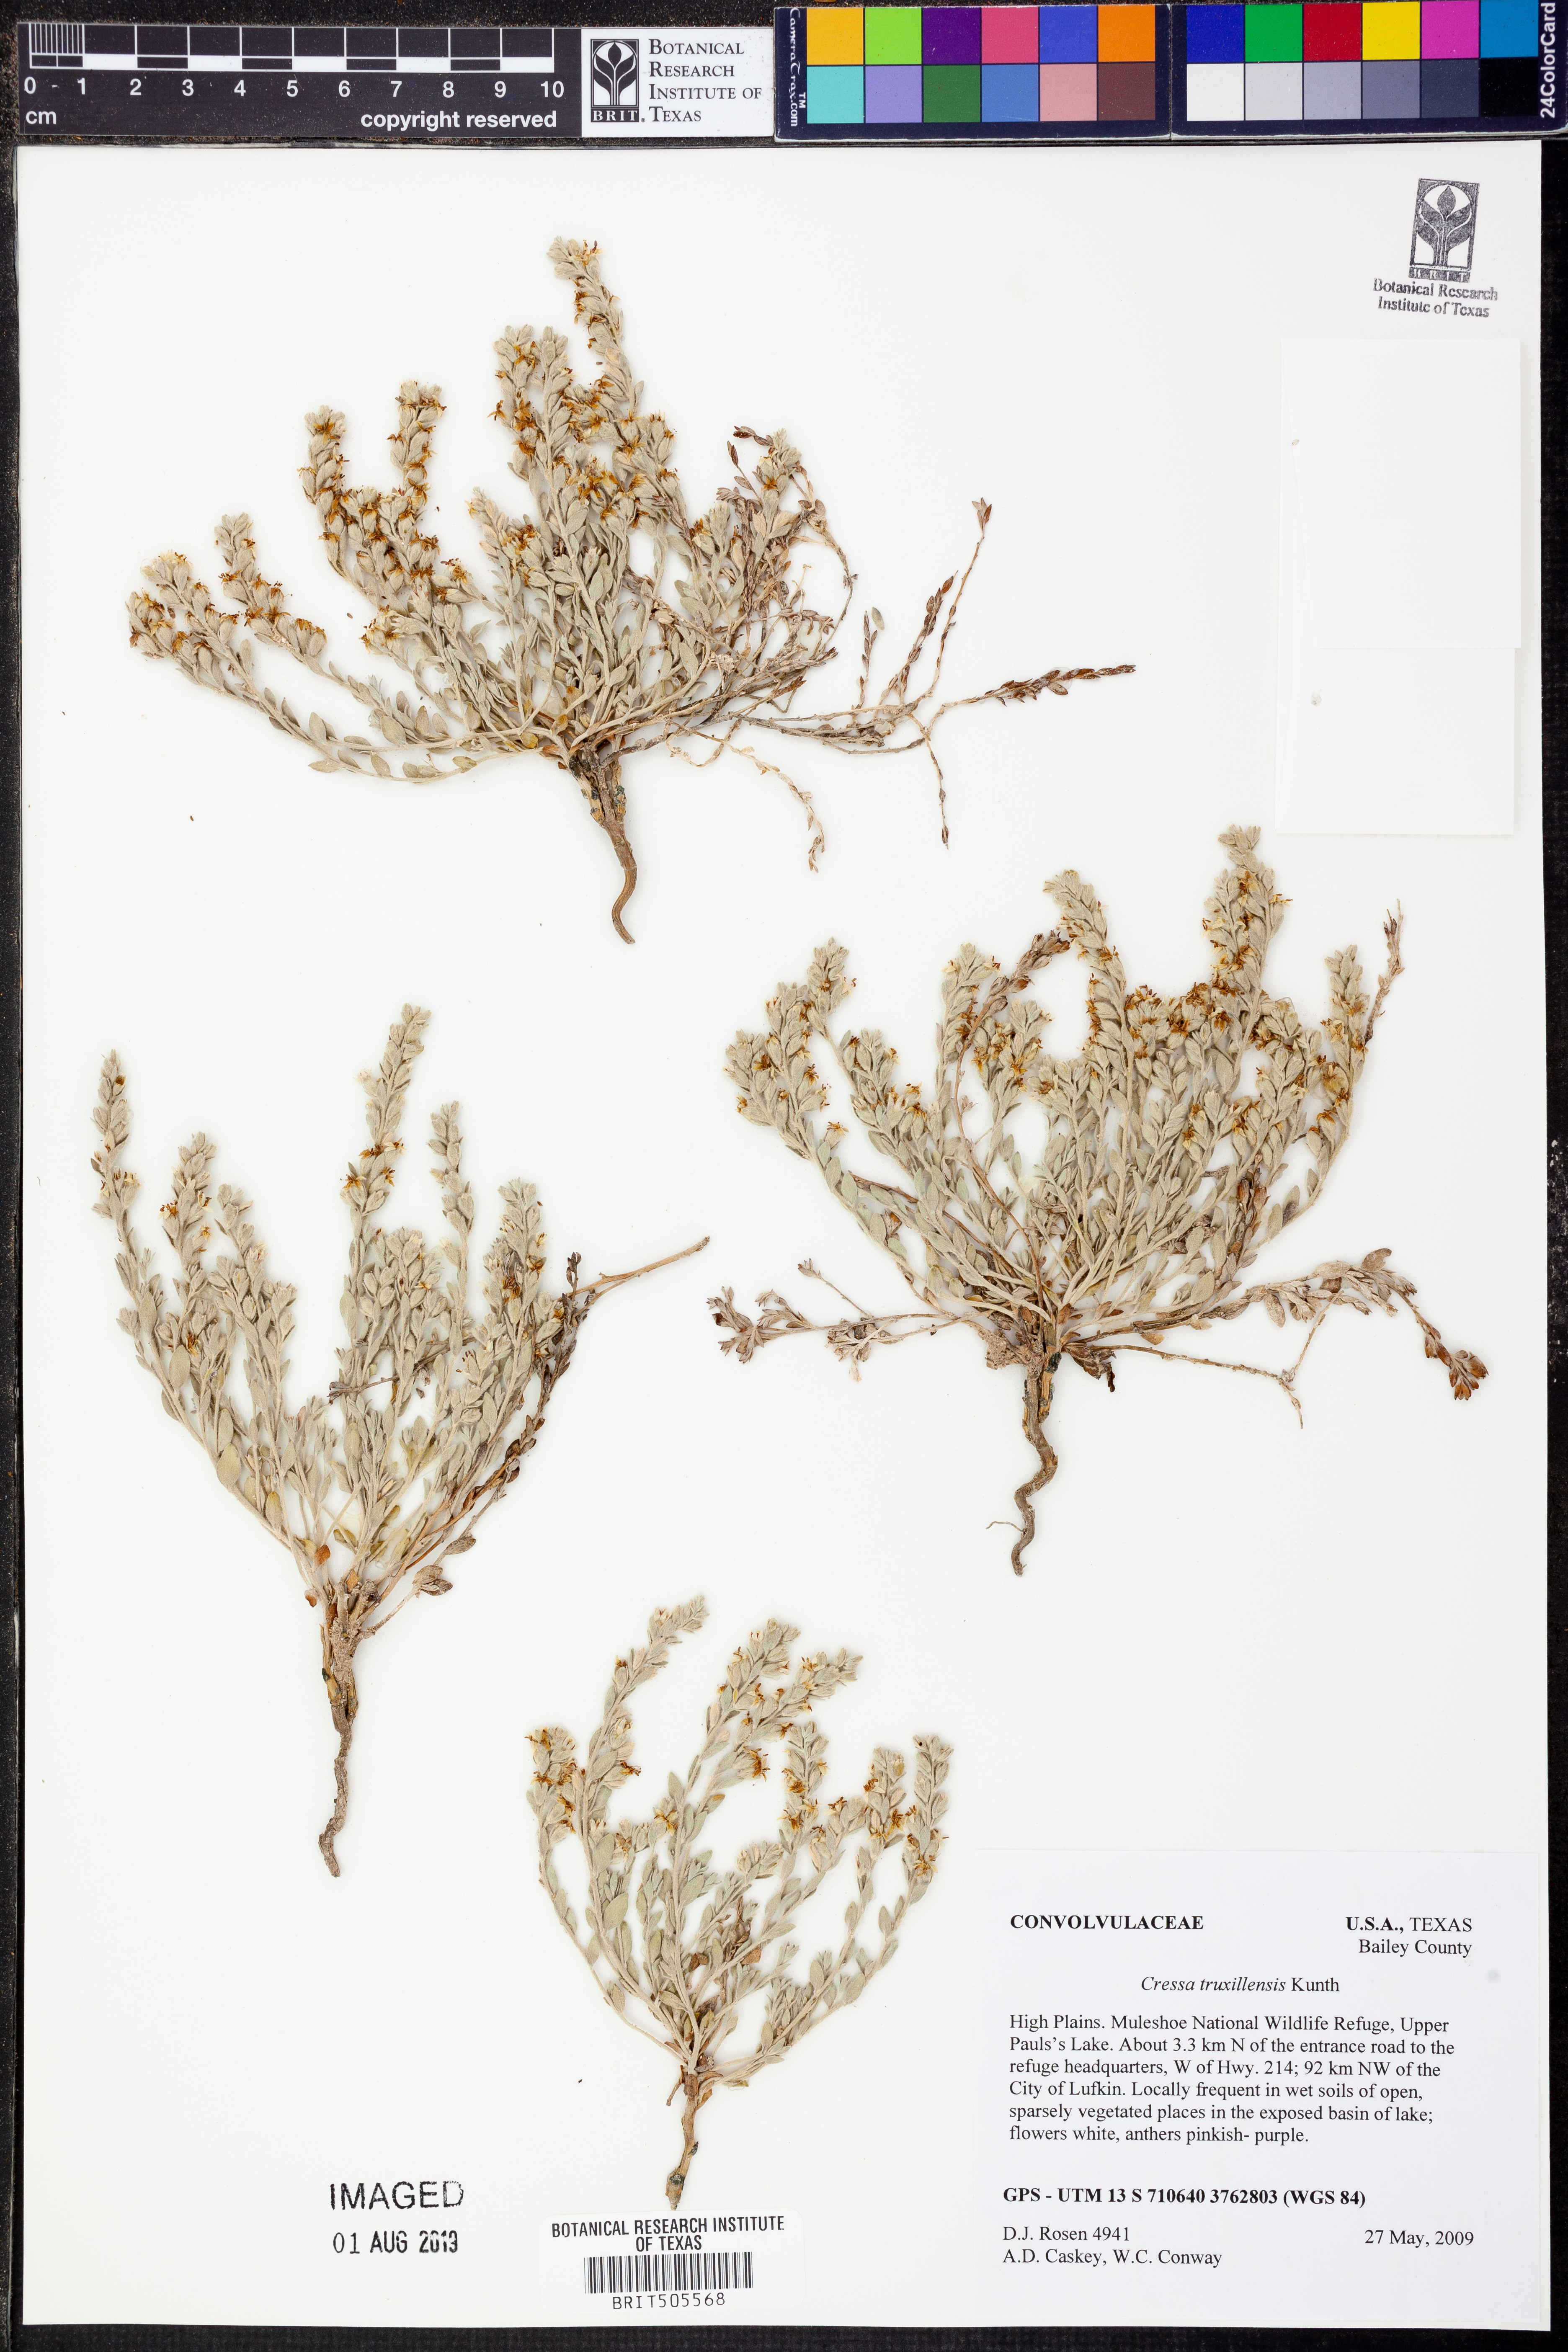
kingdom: Plantae
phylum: Tracheophyta
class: Magnoliopsida
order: Solanales
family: Convolvulaceae
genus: Cressa
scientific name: Cressa truxillensis
